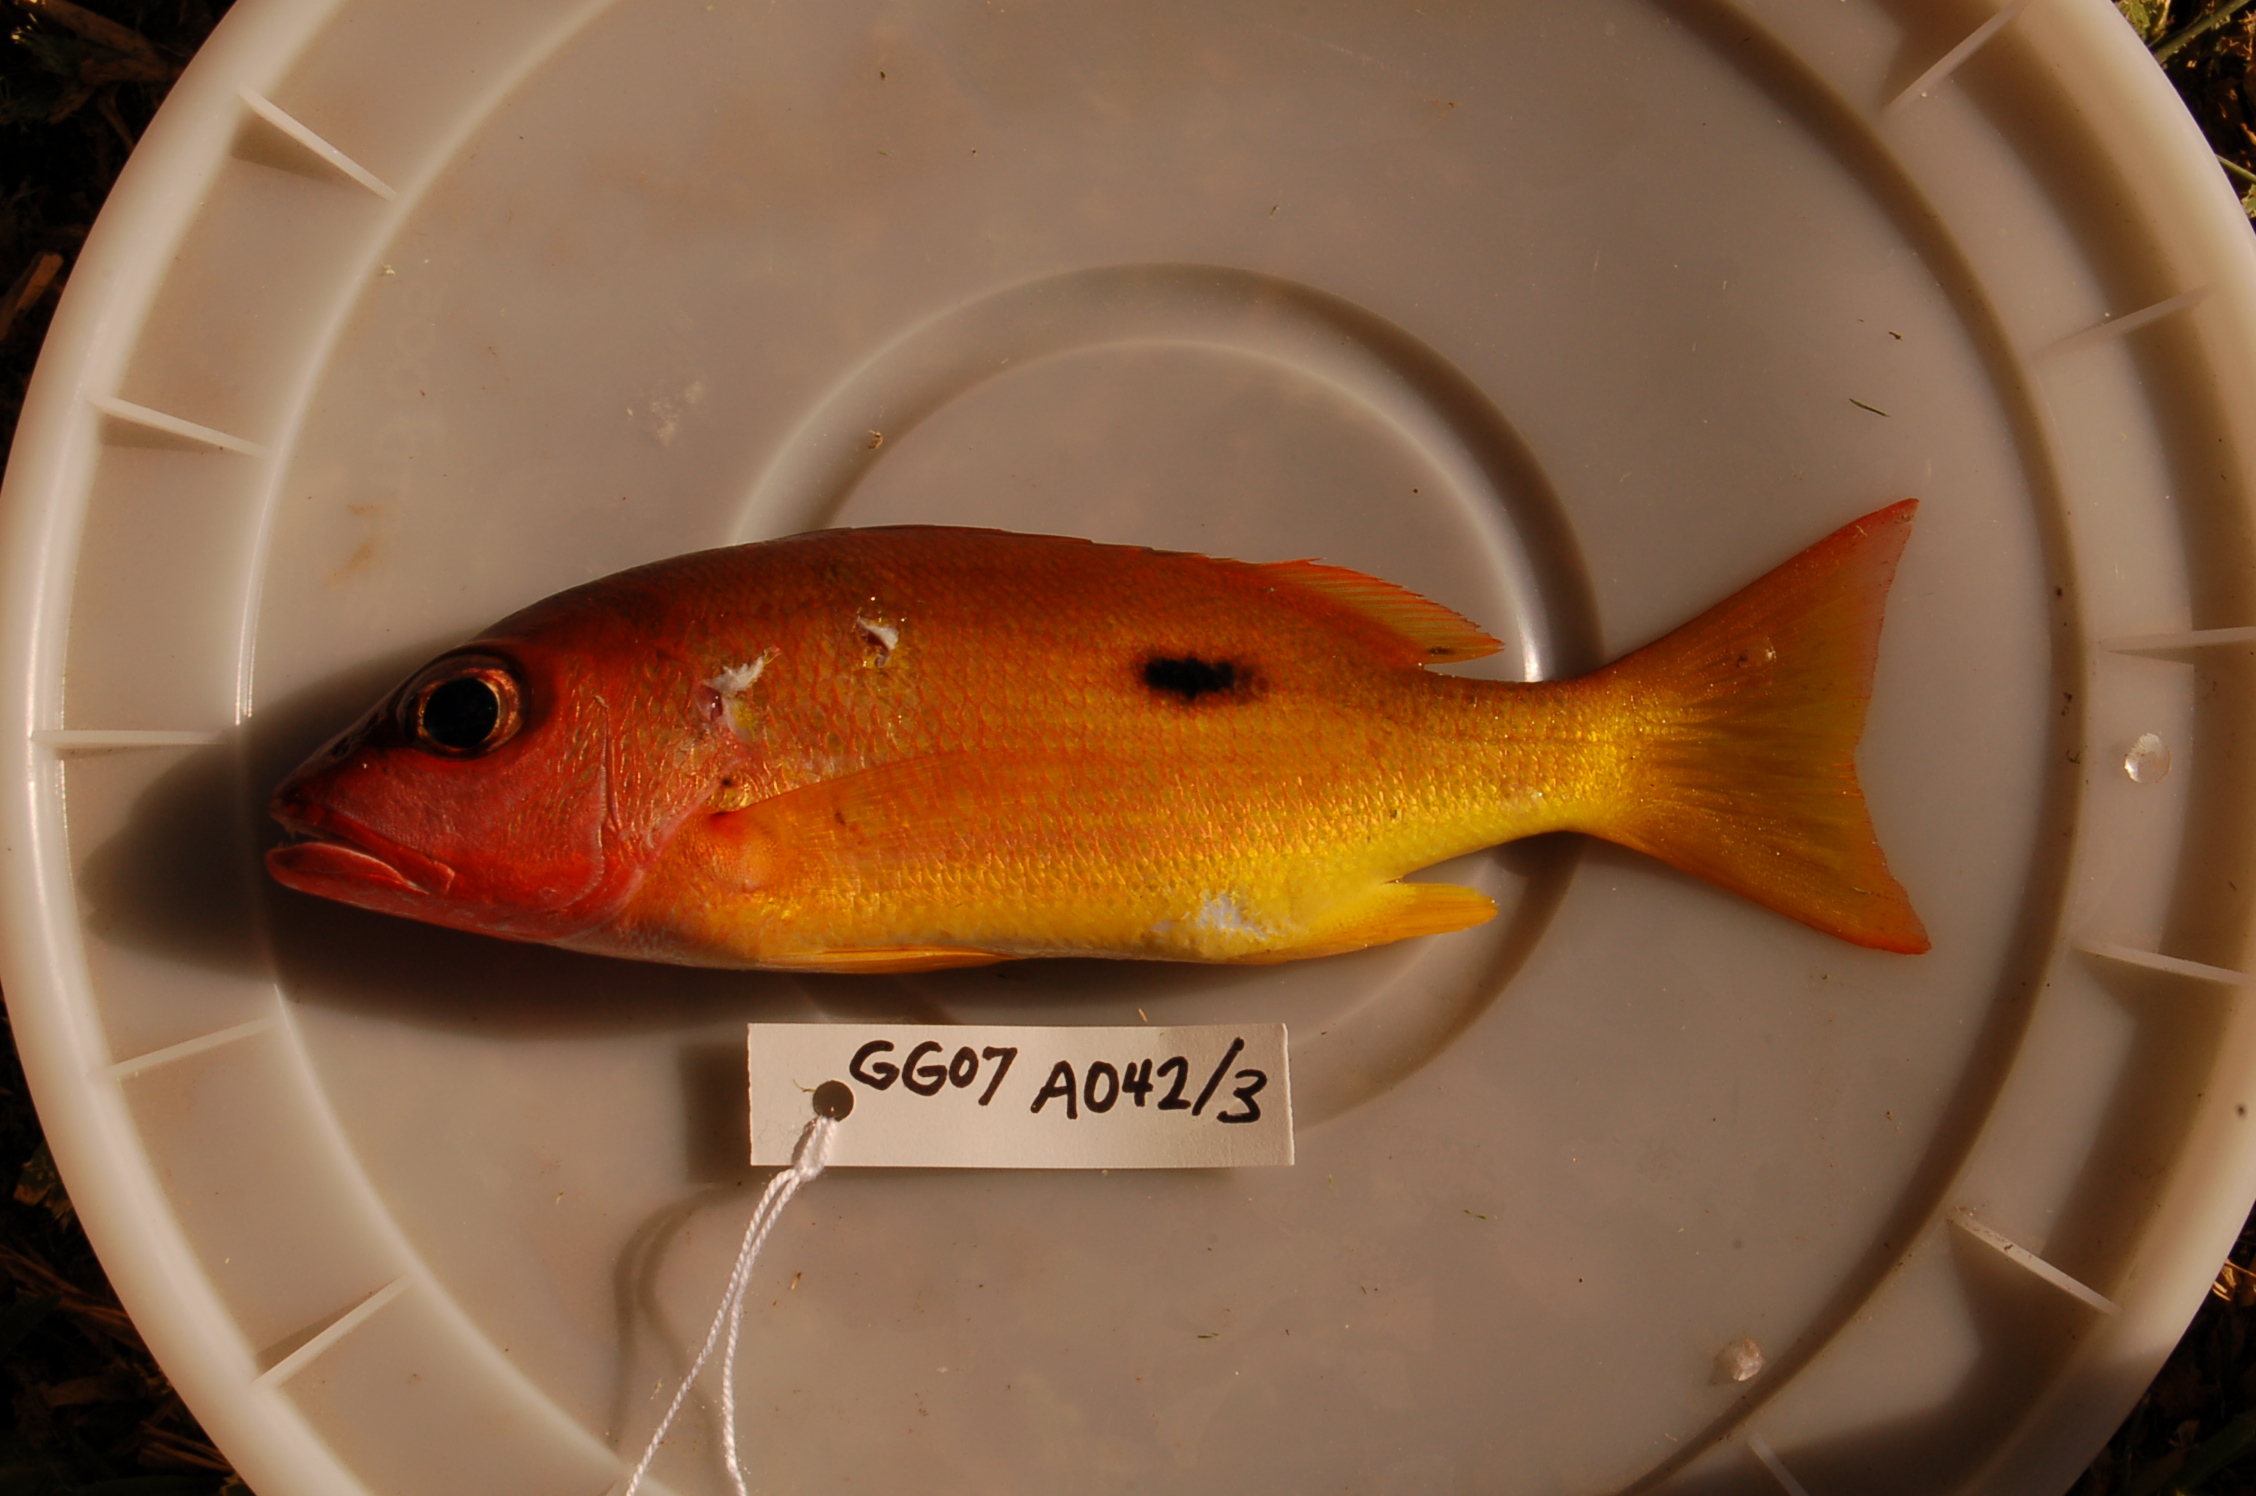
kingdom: Animalia
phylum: Chordata
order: Perciformes
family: Lutjanidae
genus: Lutjanus
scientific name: Lutjanus fulviflamma
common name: Blackspot snapper
